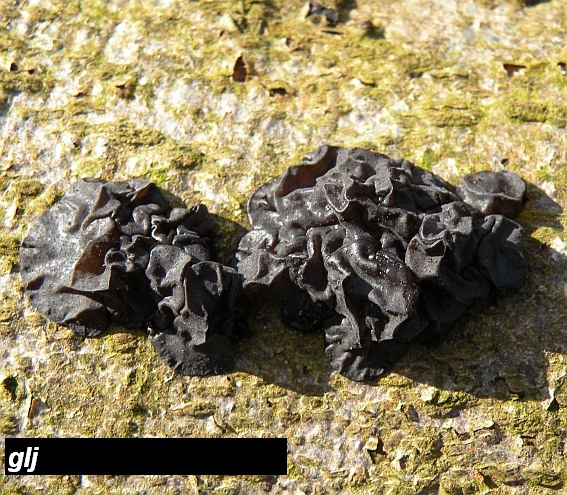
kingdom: Fungi
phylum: Basidiomycota
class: Agaricomycetes
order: Auriculariales
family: Auriculariaceae
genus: Exidia
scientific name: Exidia nigricans
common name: almindelig bævretop
